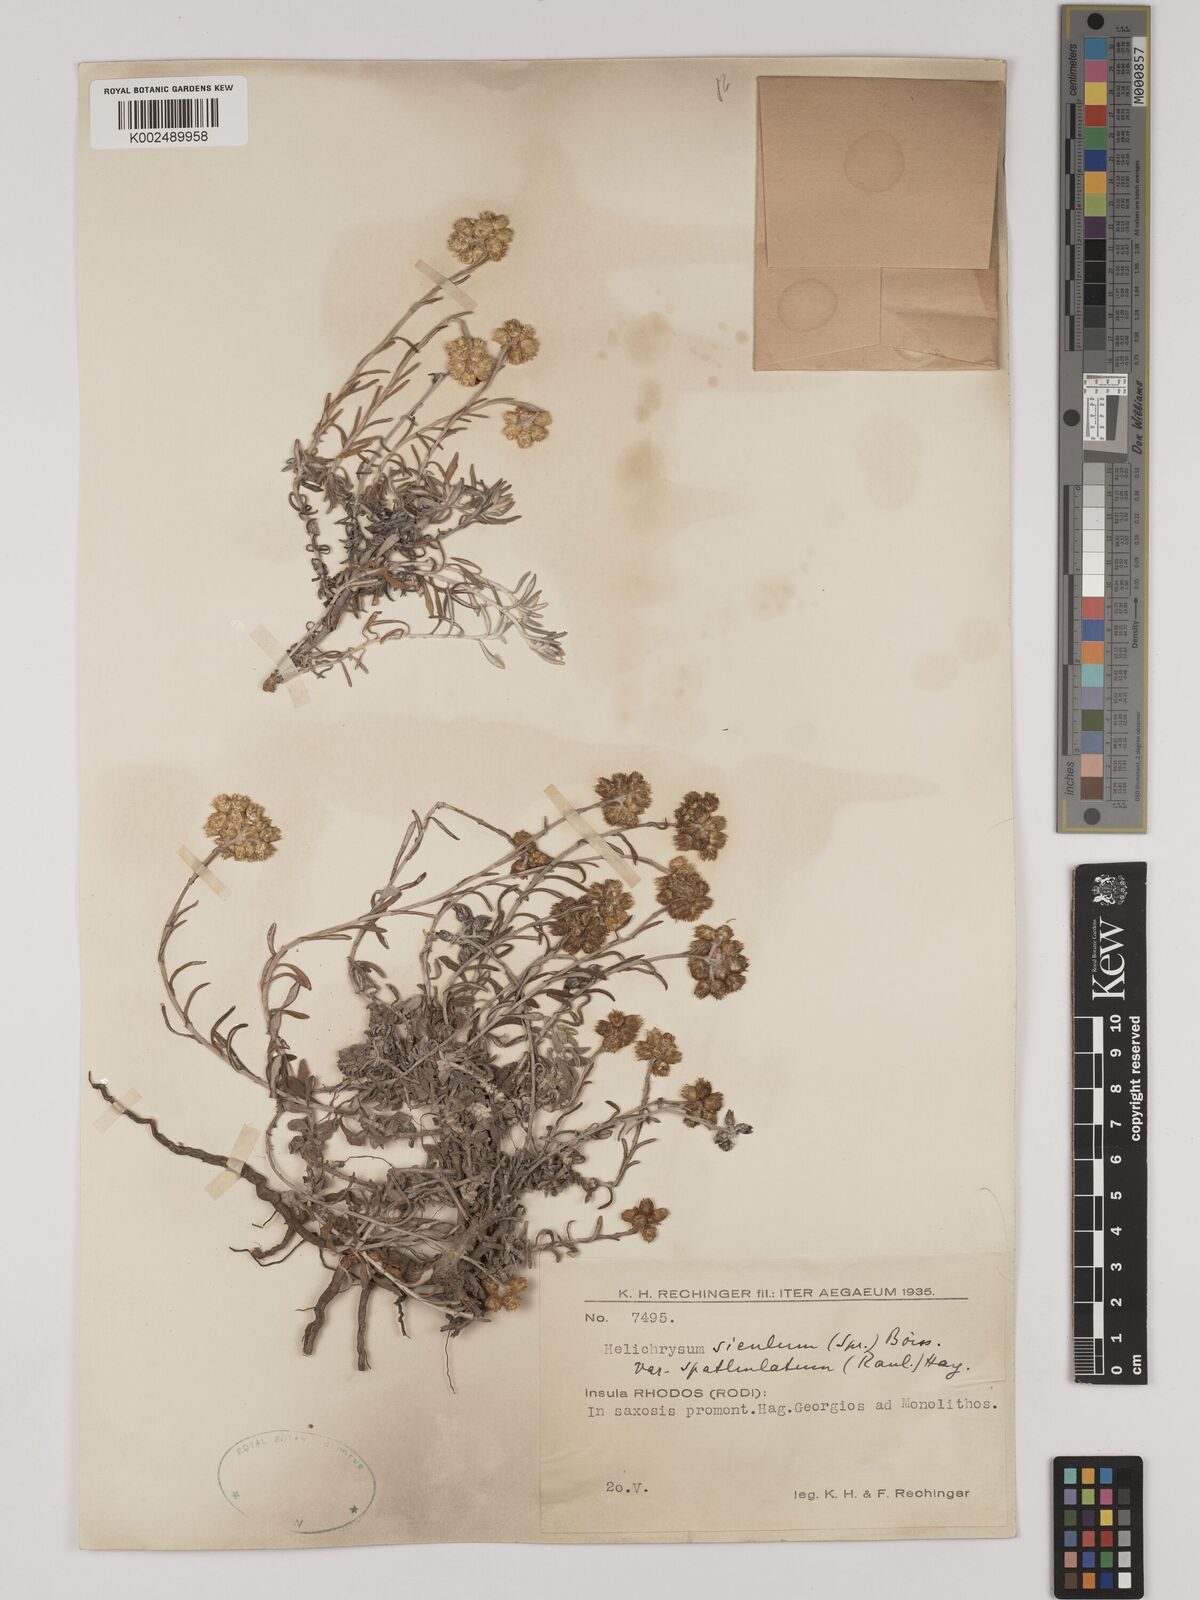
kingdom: Plantae
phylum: Tracheophyta
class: Magnoliopsida
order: Asterales
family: Asteraceae
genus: Helichrysum
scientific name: Helichrysum italicum
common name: Curryplant
